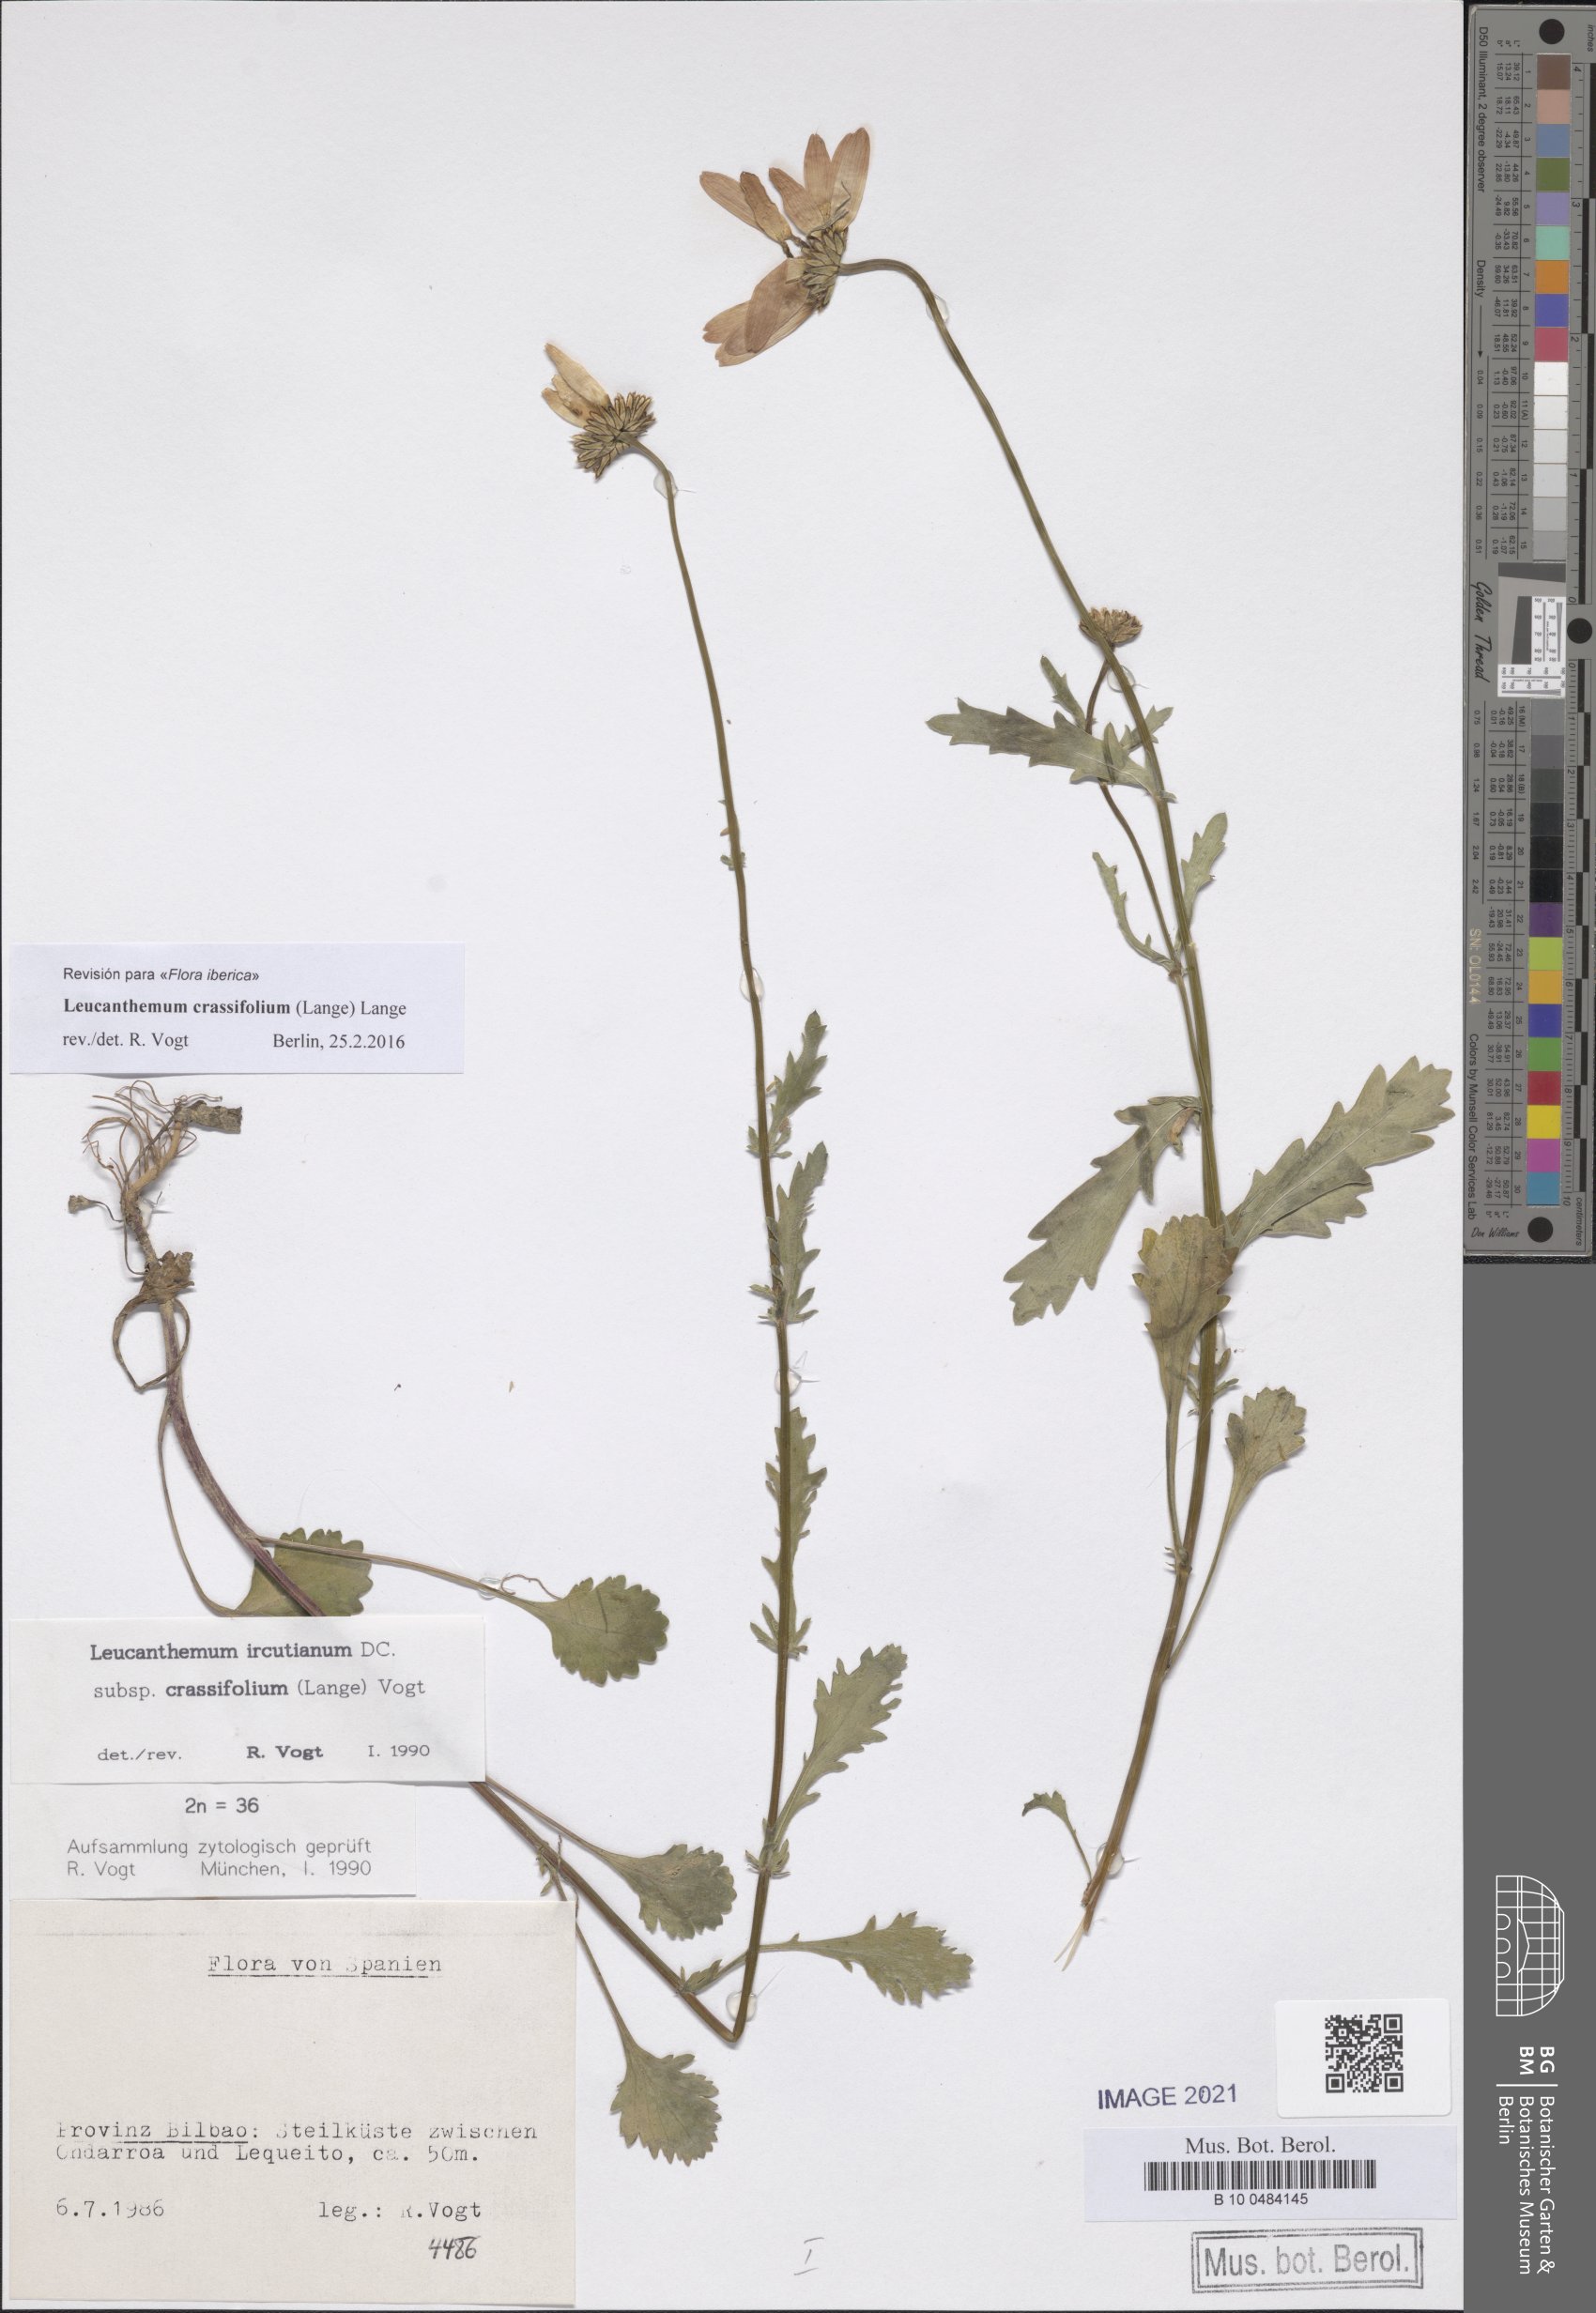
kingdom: Plantae
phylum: Tracheophyta
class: Magnoliopsida
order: Asterales
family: Asteraceae
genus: Leucanthemum
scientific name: Leucanthemum crassifolium
